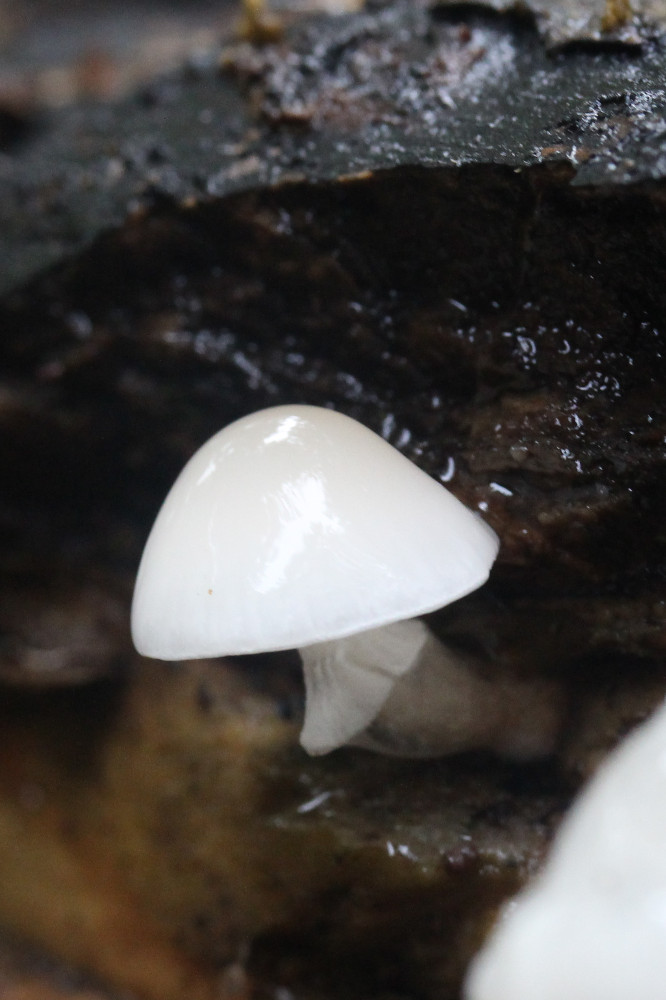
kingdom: Fungi
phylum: Basidiomycota
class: Agaricomycetes
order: Agaricales
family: Physalacriaceae
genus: Mucidula
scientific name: Mucidula mucida
